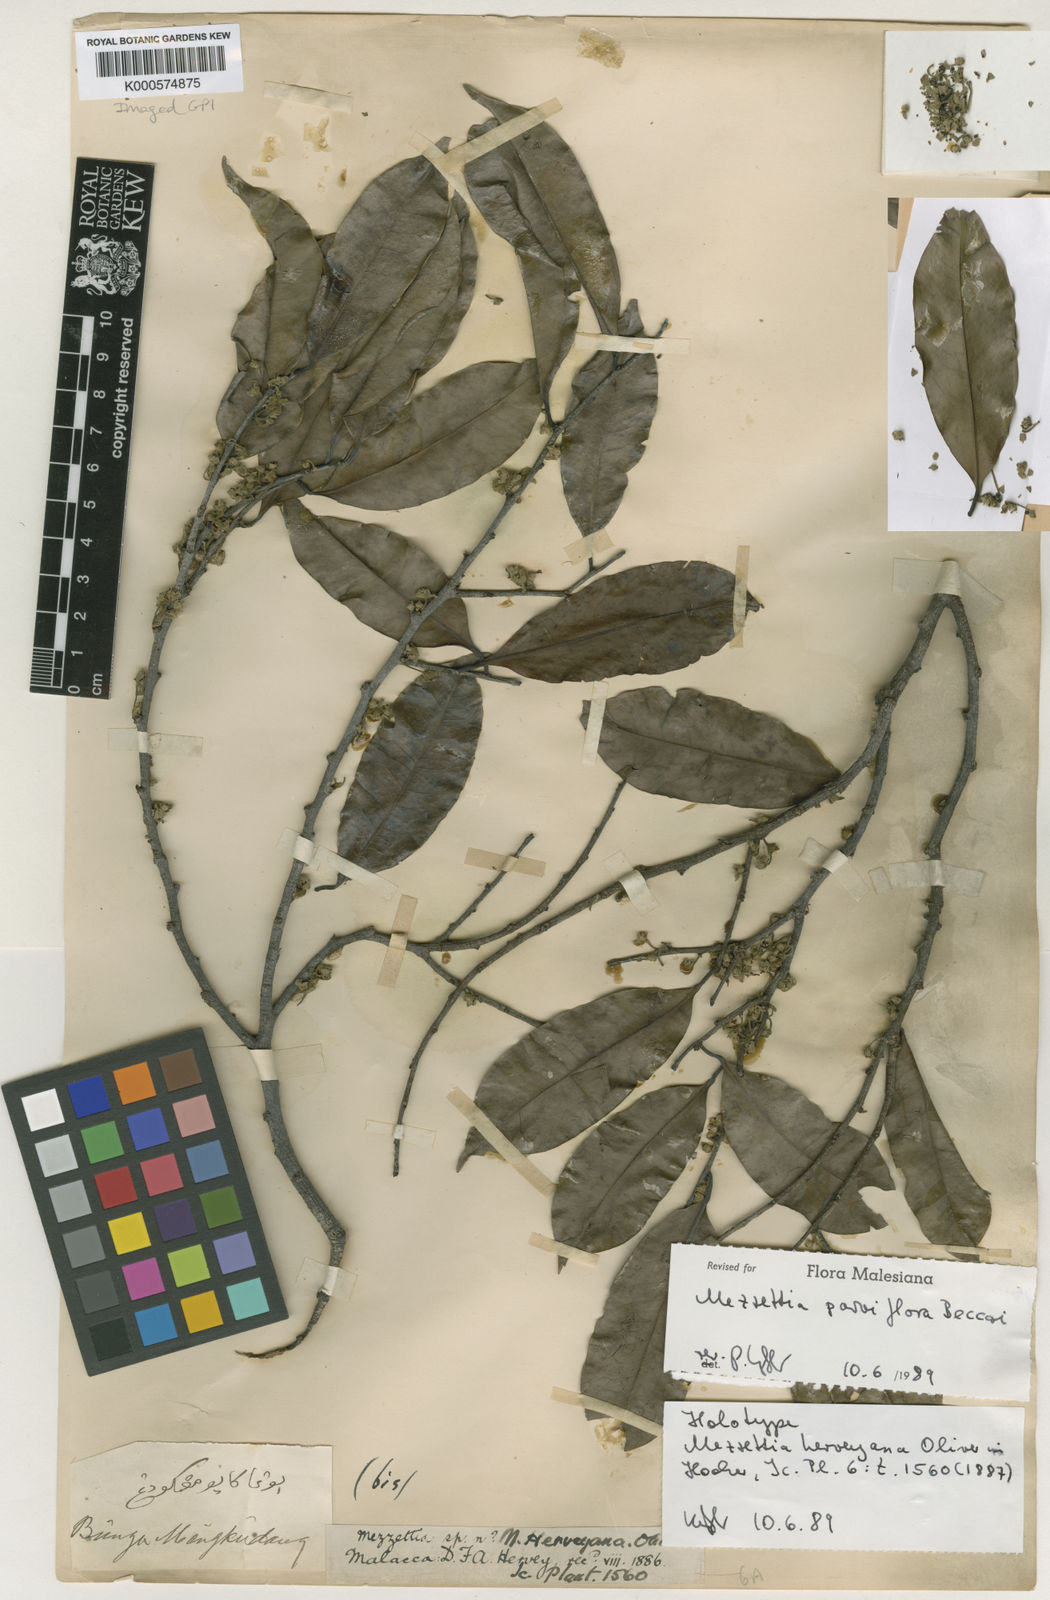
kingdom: Plantae
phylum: Tracheophyta
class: Magnoliopsida
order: Magnoliales
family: Annonaceae
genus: Mezzettia
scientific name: Mezzettia parviflora
